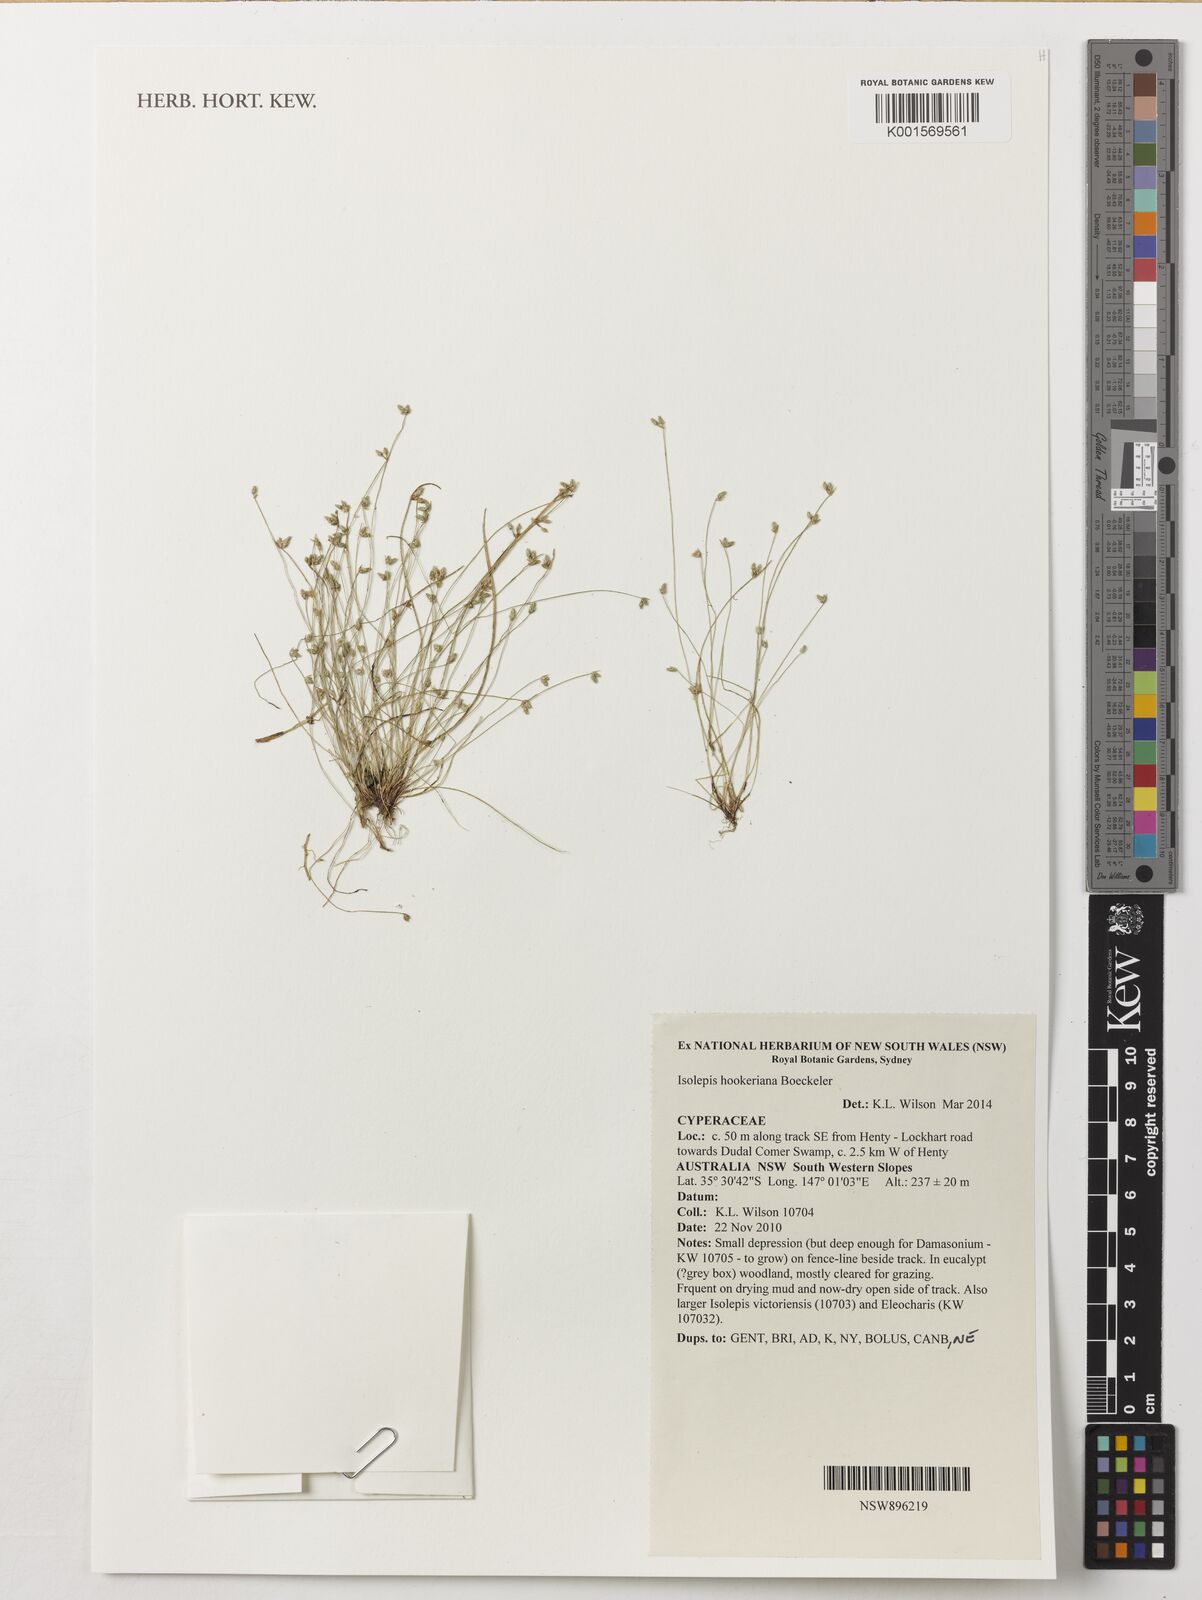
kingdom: Plantae
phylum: Tracheophyta
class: Liliopsida
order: Poales
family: Cyperaceae
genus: Isolepis
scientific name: Isolepis multicaulis
